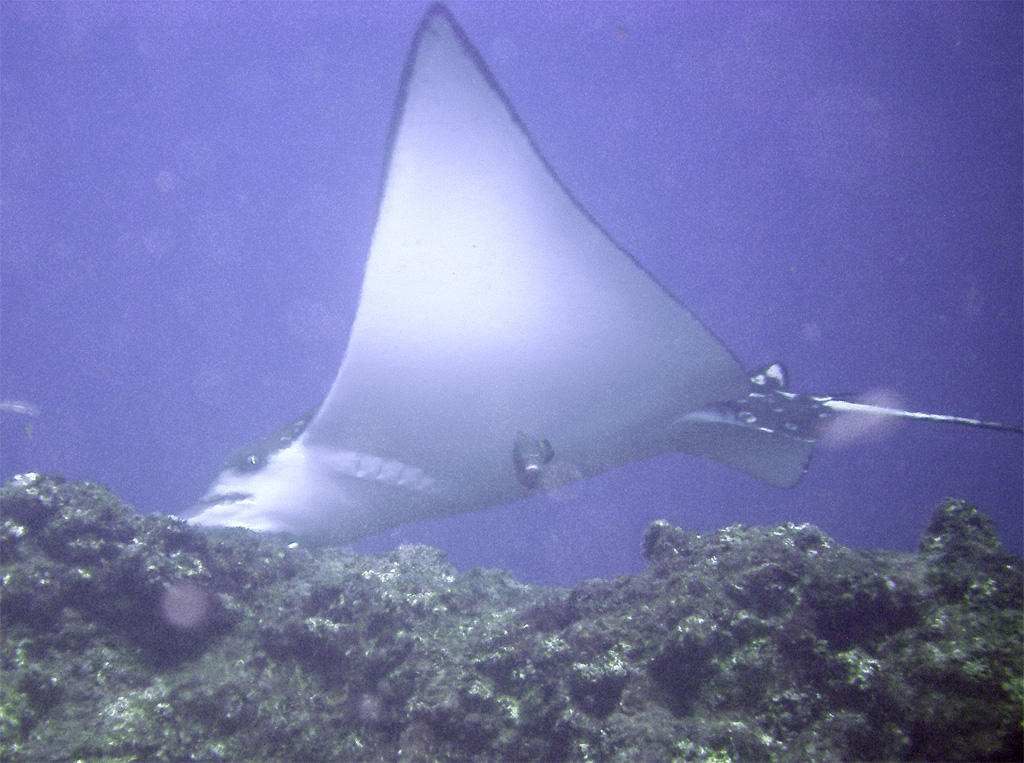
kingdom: Animalia
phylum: Chordata
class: Elasmobranchii
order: Myliobatiformes
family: Myliobatidae
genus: Aetobatus
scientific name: Aetobatus narinari
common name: Spotted eagle ray
